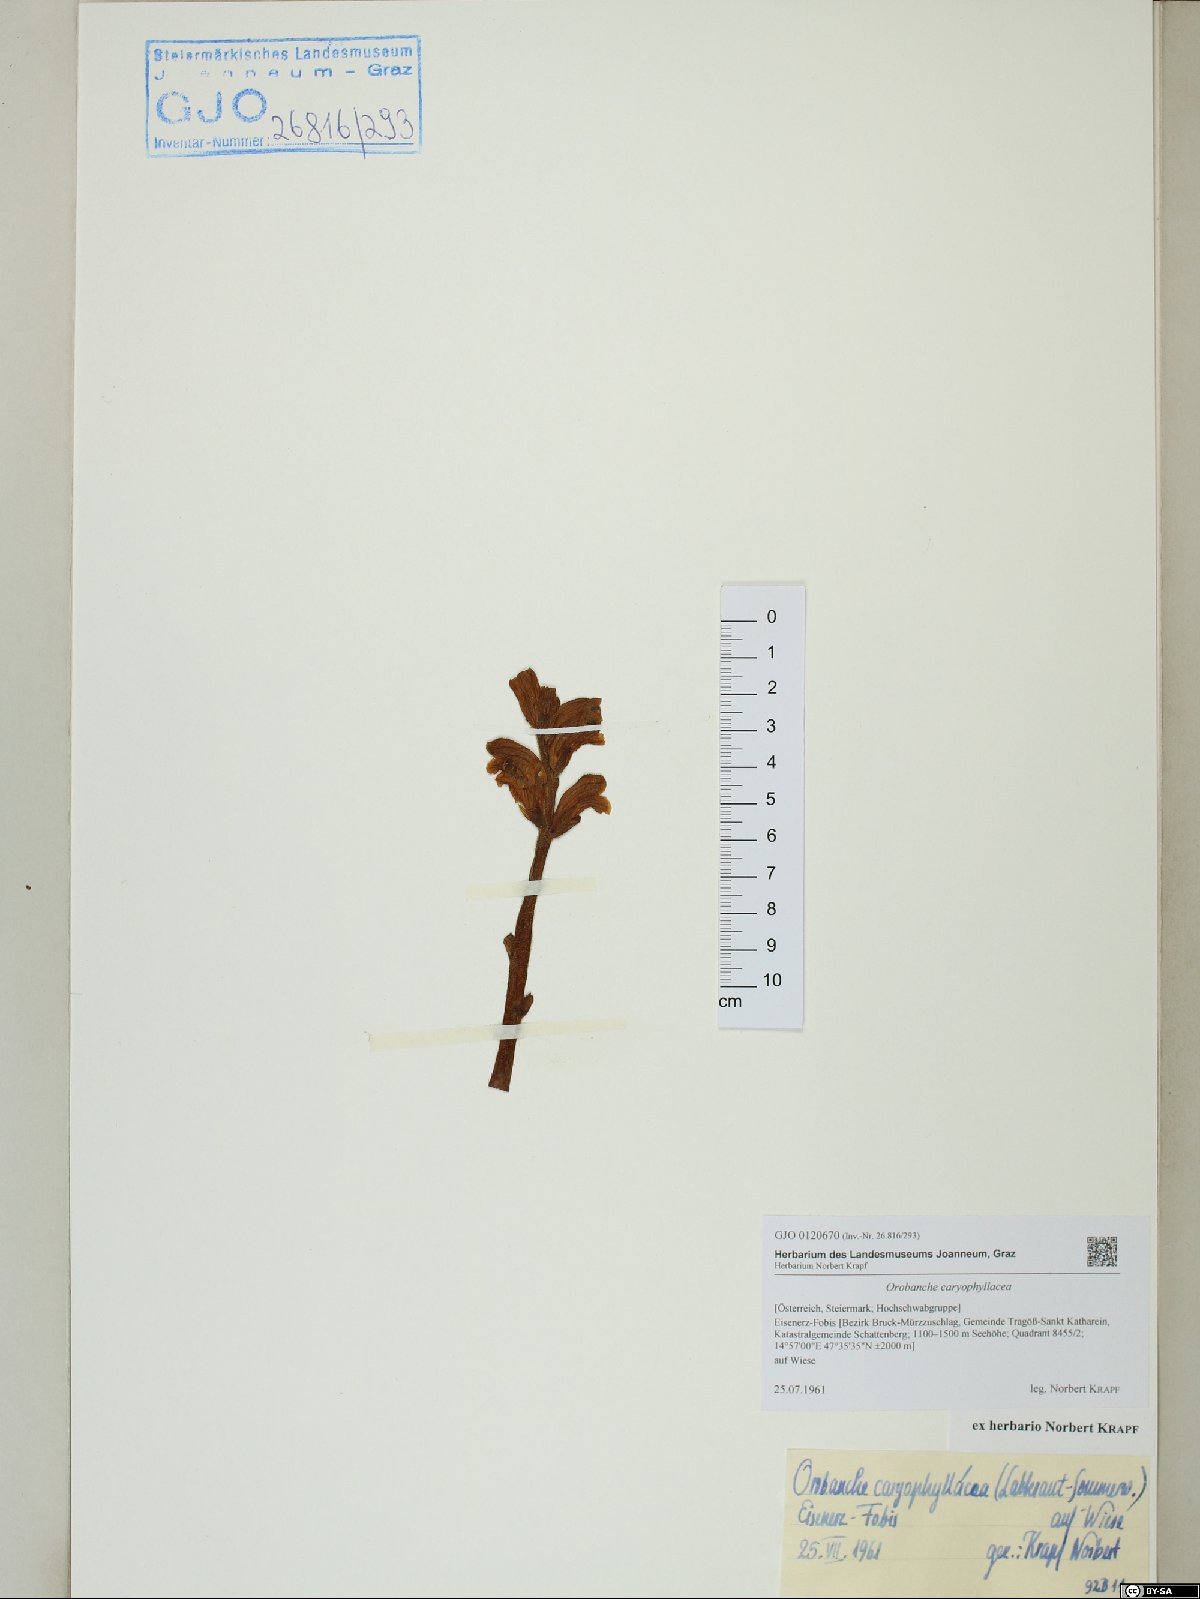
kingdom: Plantae
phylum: Tracheophyta
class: Magnoliopsida
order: Lamiales
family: Orobanchaceae
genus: Orobanche
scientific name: Orobanche caryophyllacea
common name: Bedstraw broomrape
